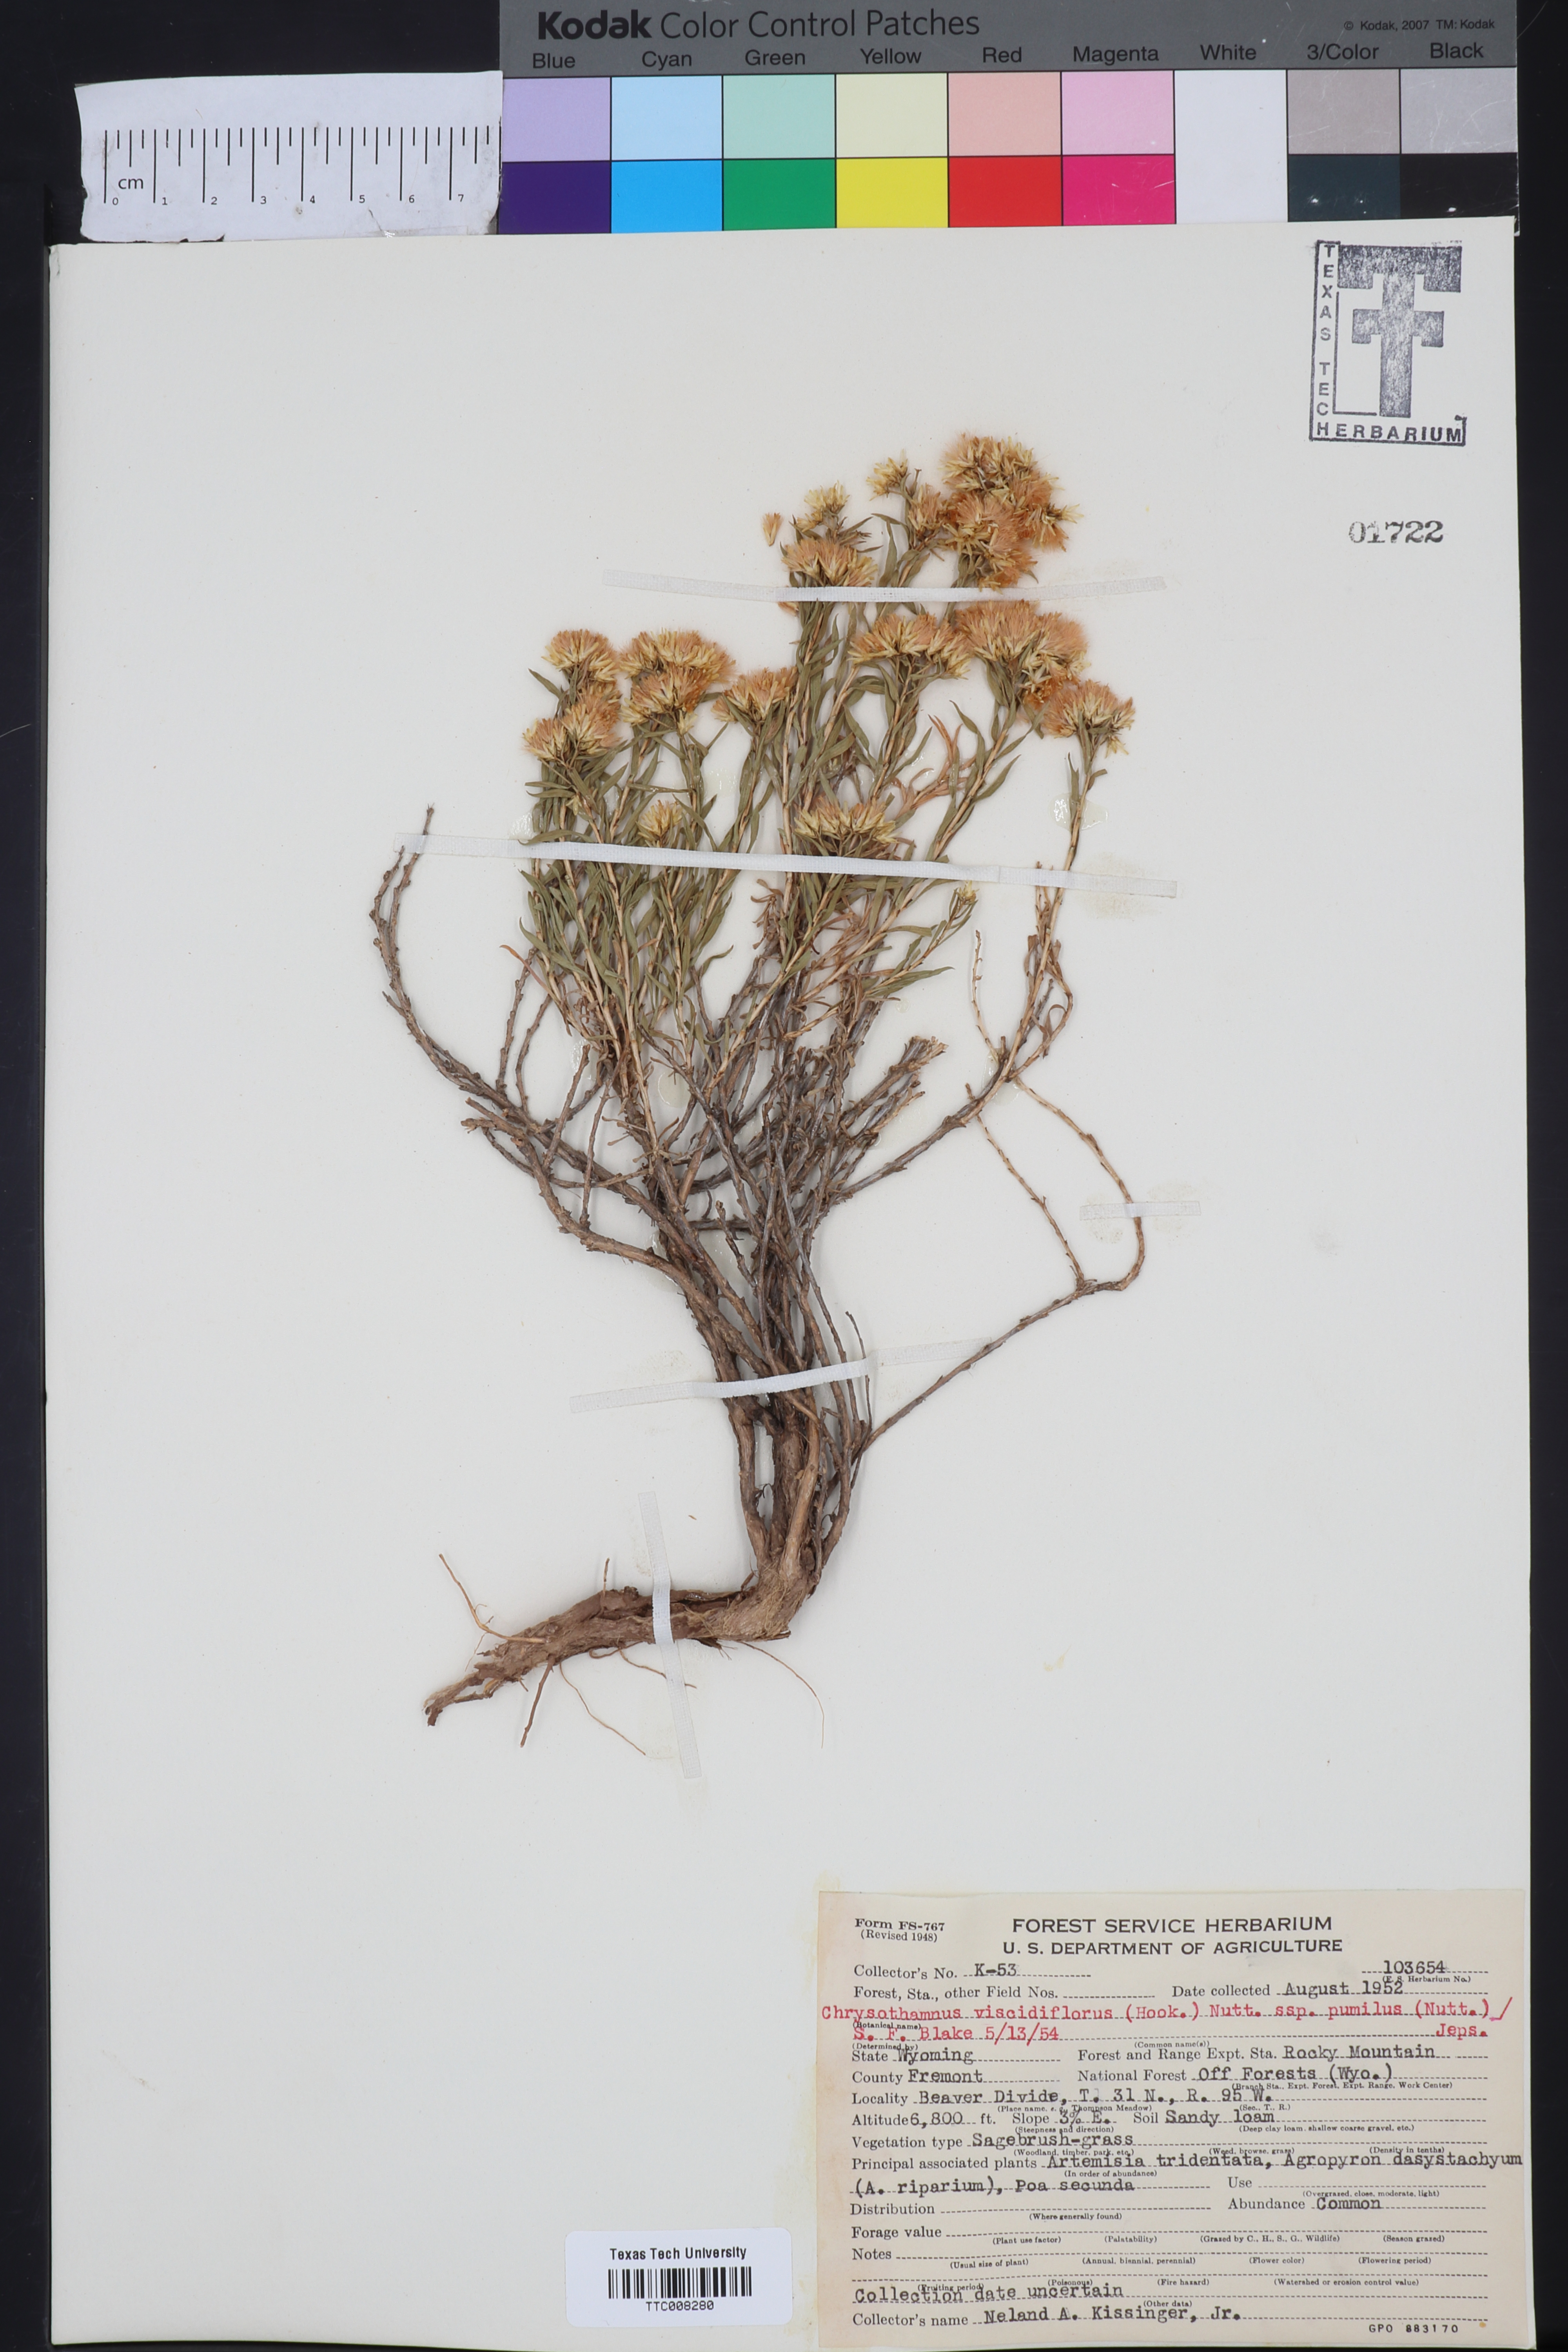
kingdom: Plantae
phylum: Tracheophyta
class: Magnoliopsida
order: Asterales
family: Asteraceae
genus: Chrysothamnus
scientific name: Chrysothamnus viscidiflorus
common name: Yellow rabbitbrush
